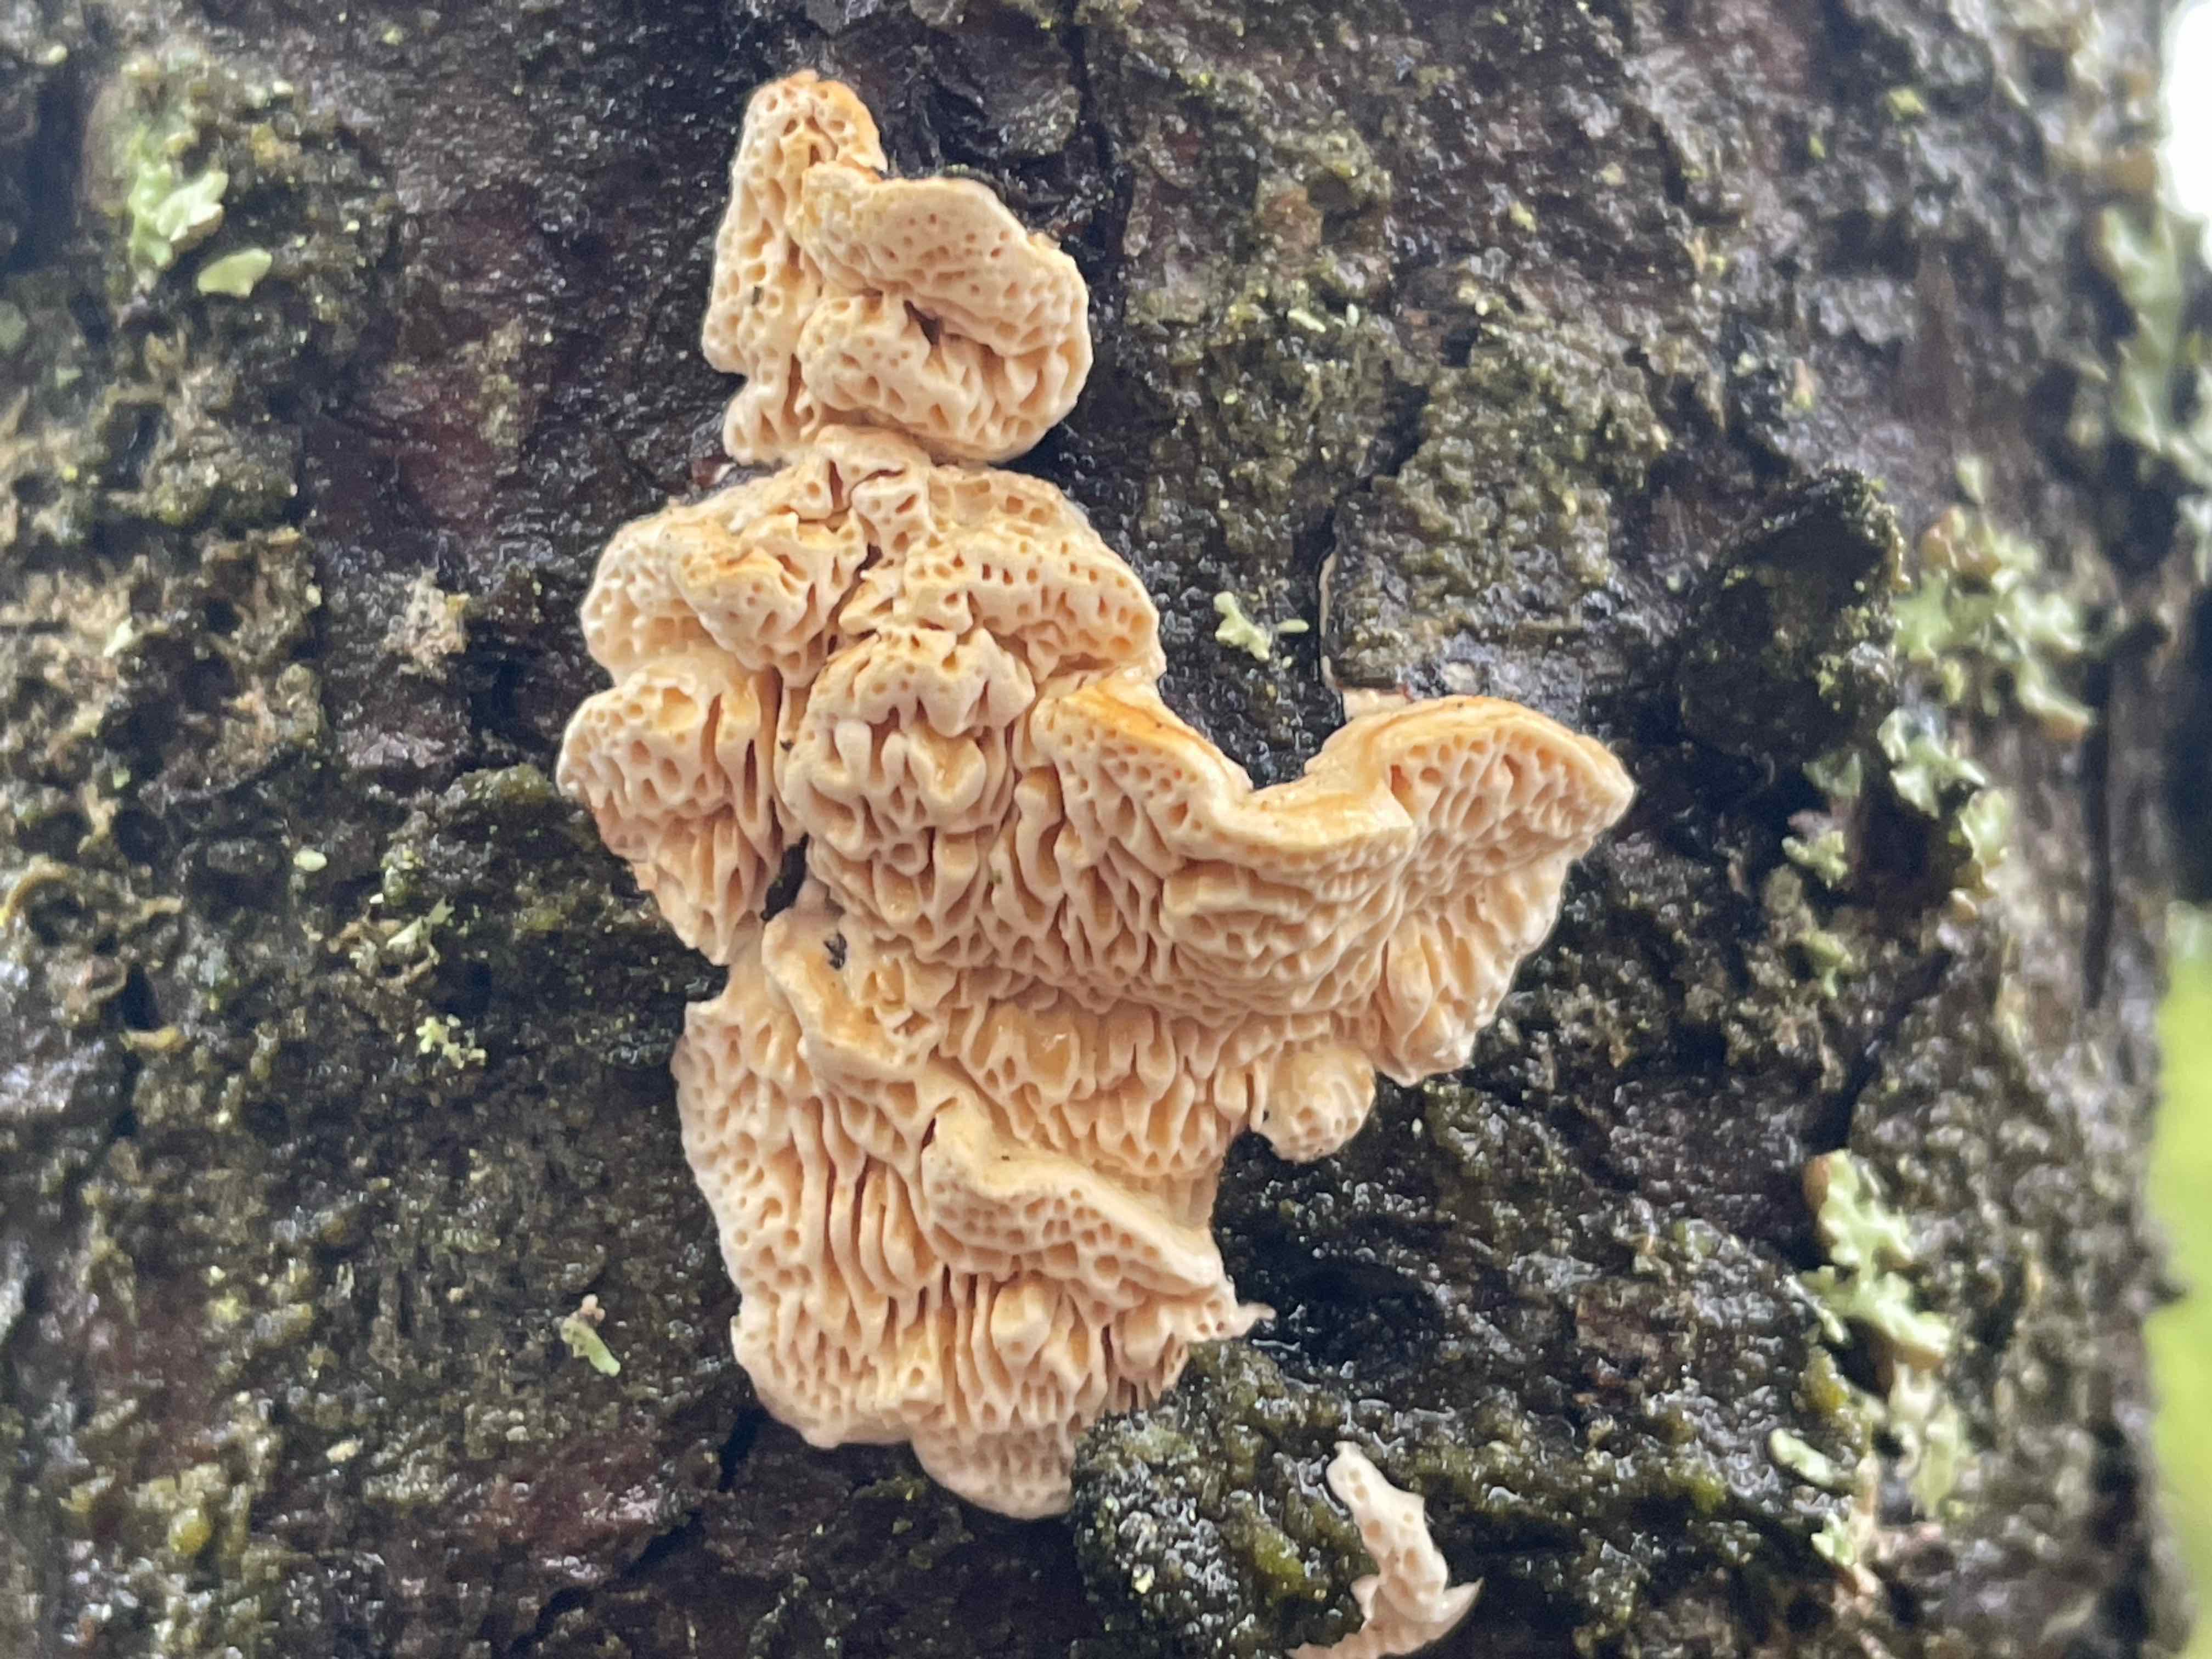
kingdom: Fungi
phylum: Basidiomycota
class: Agaricomycetes
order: Polyporales
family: Fomitopsidaceae
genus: Fomitopsis
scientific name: Fomitopsis
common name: fyrre-skiveporesvamp
